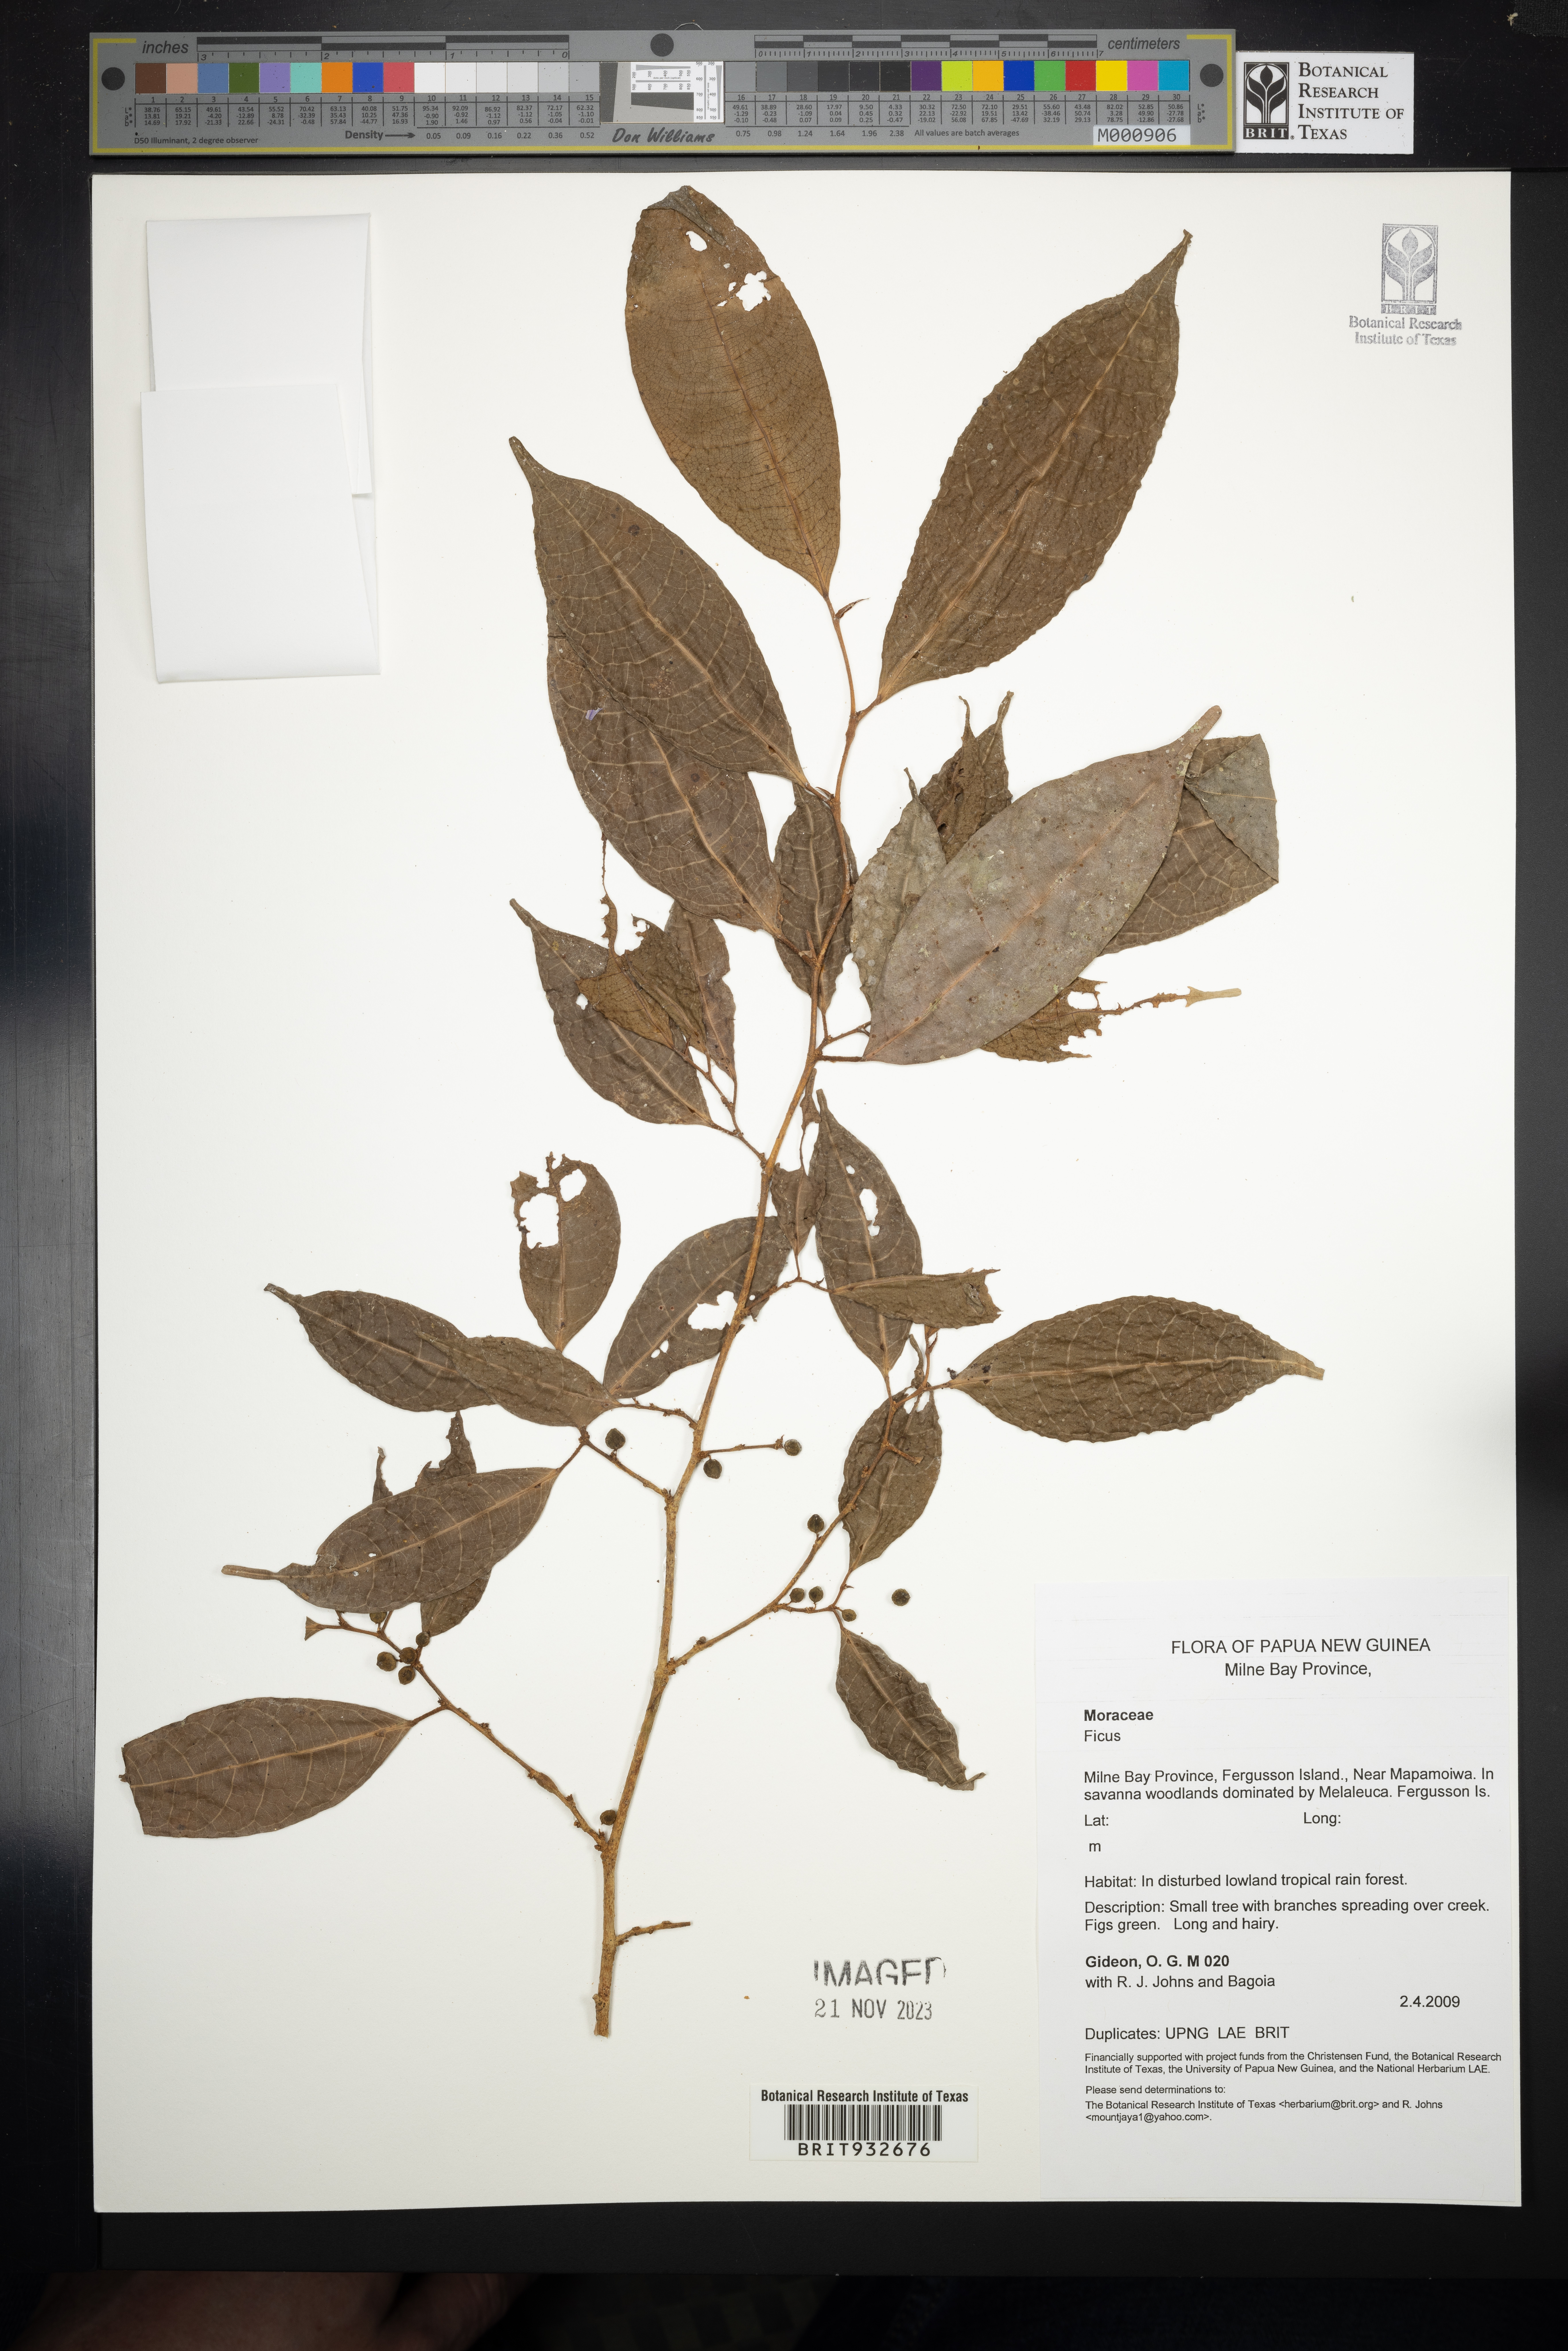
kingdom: Plantae
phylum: Tracheophyta
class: Magnoliopsida
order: Rosales
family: Moraceae
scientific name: Moraceae
